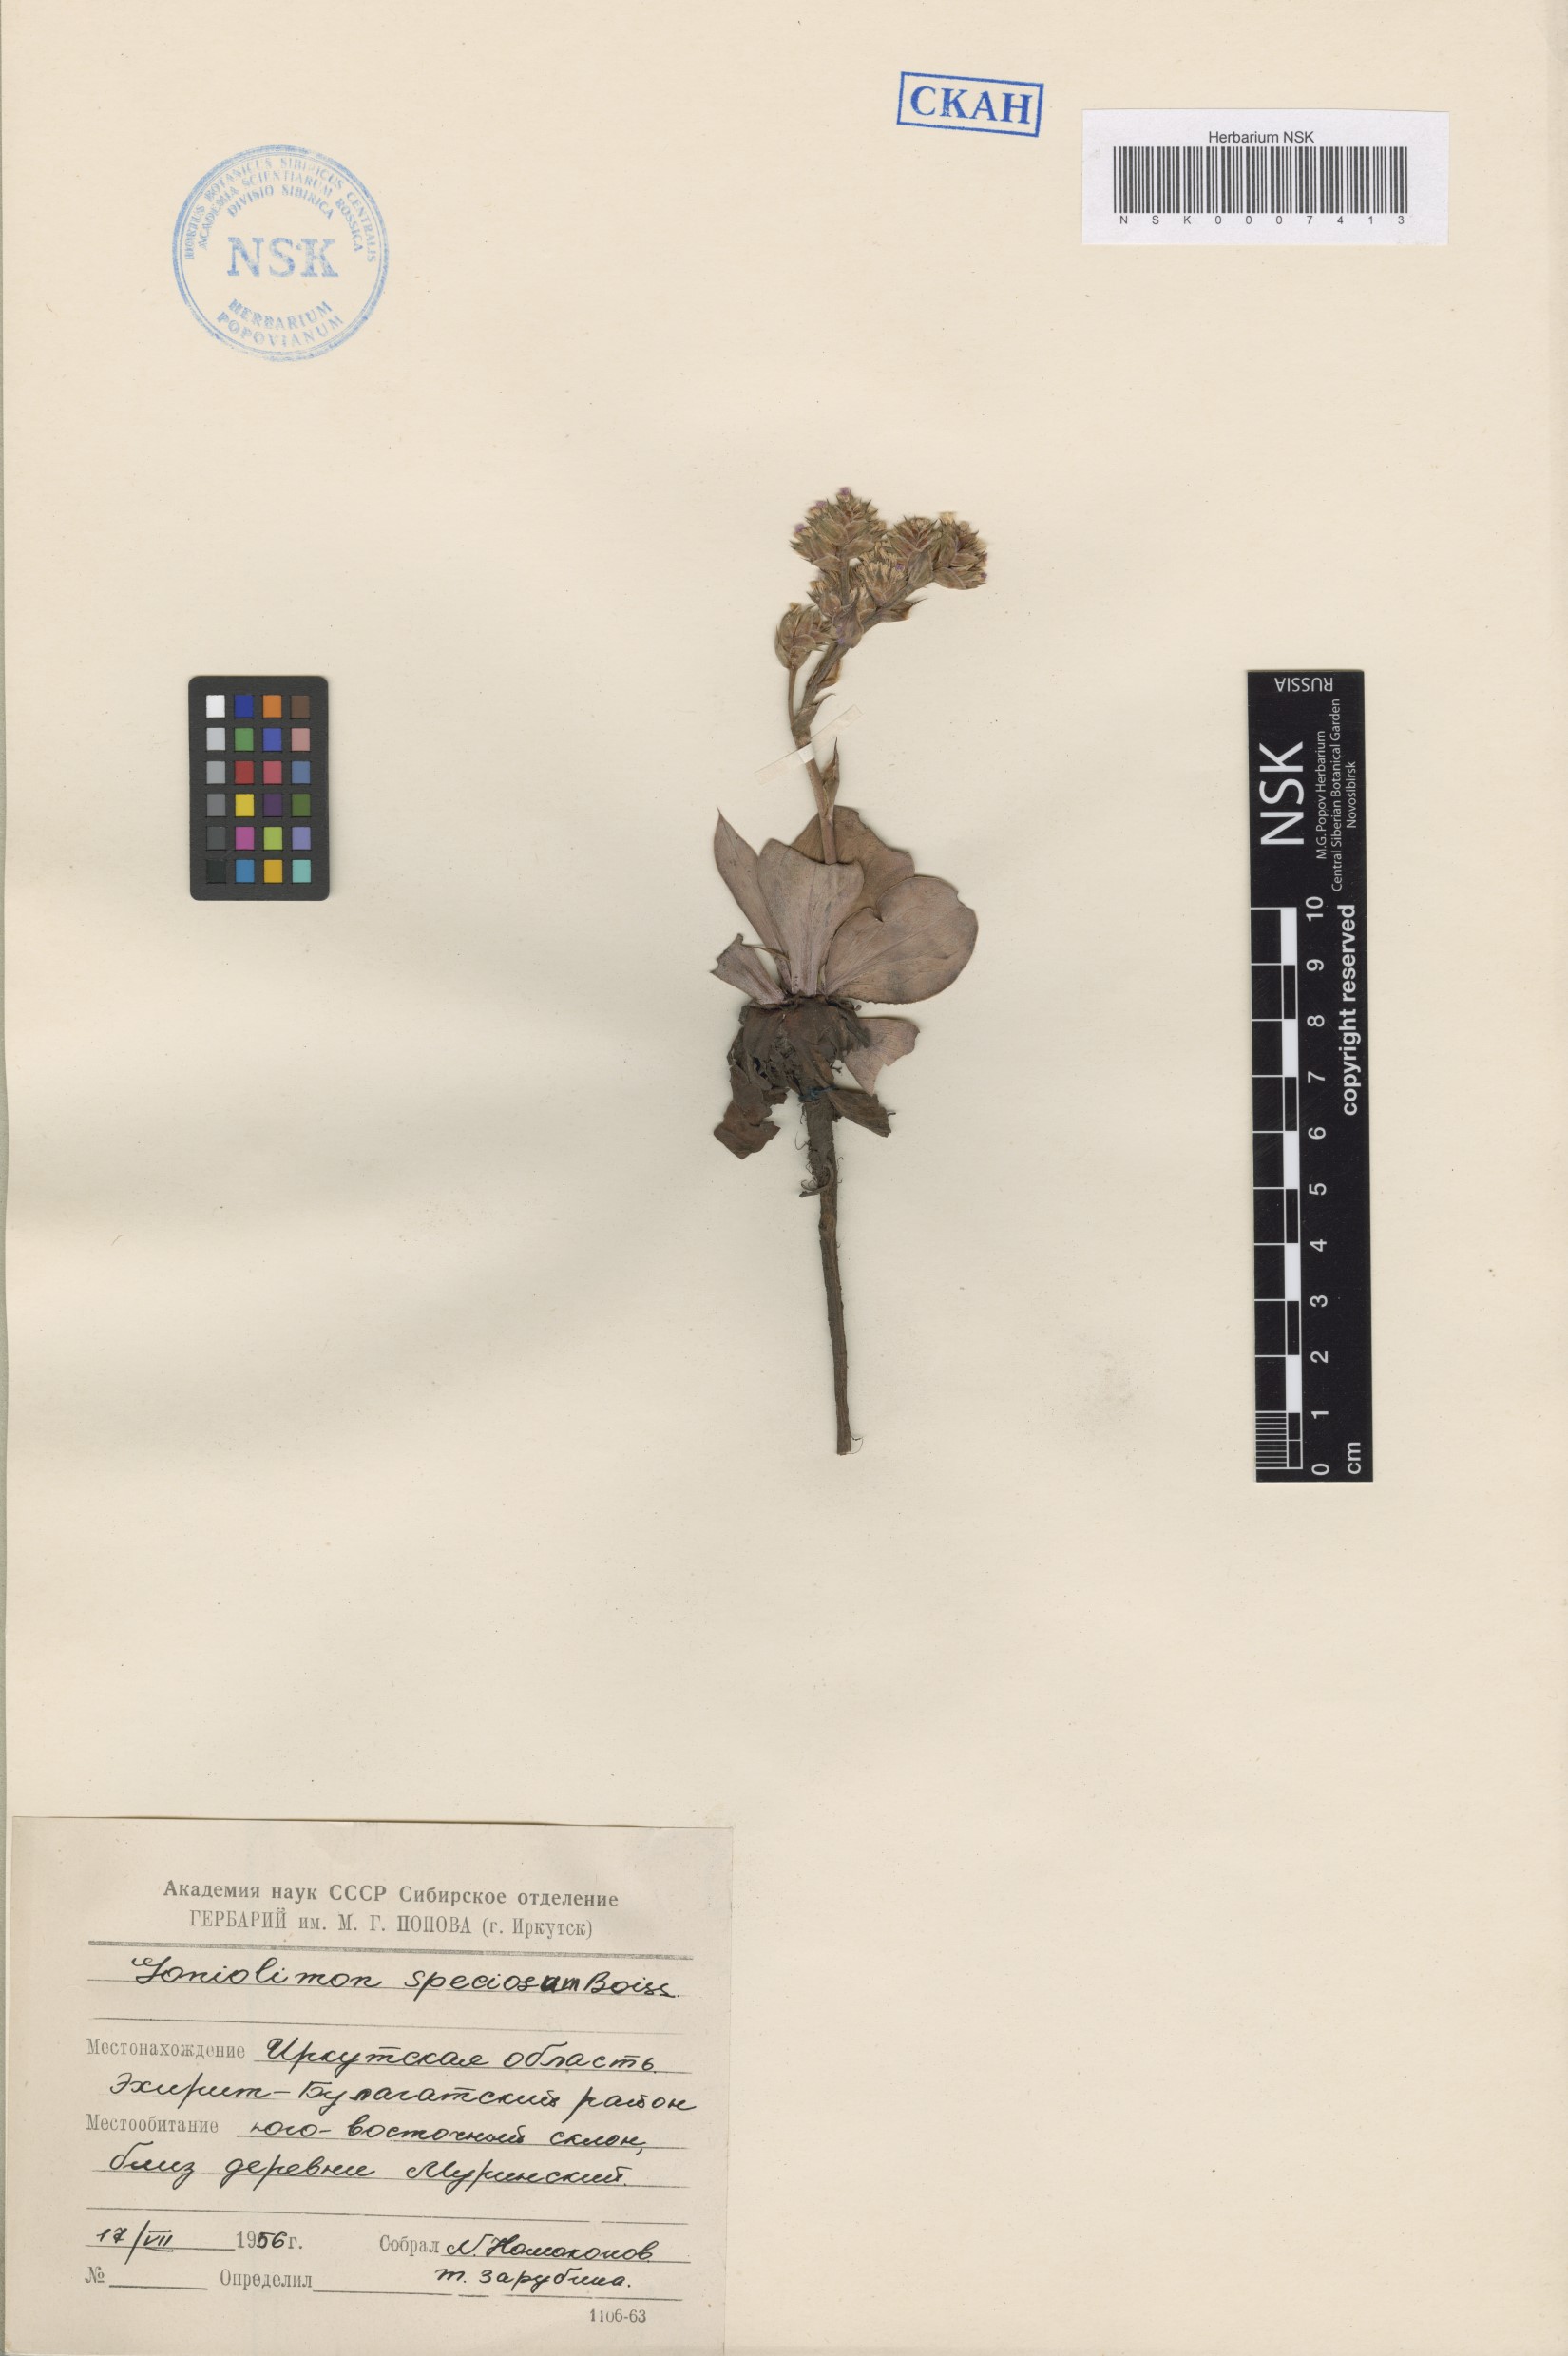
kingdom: Plantae
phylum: Tracheophyta
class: Magnoliopsida
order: Caryophyllales
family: Plumbaginaceae
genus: Goniolimon
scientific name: Goniolimon speciosum
